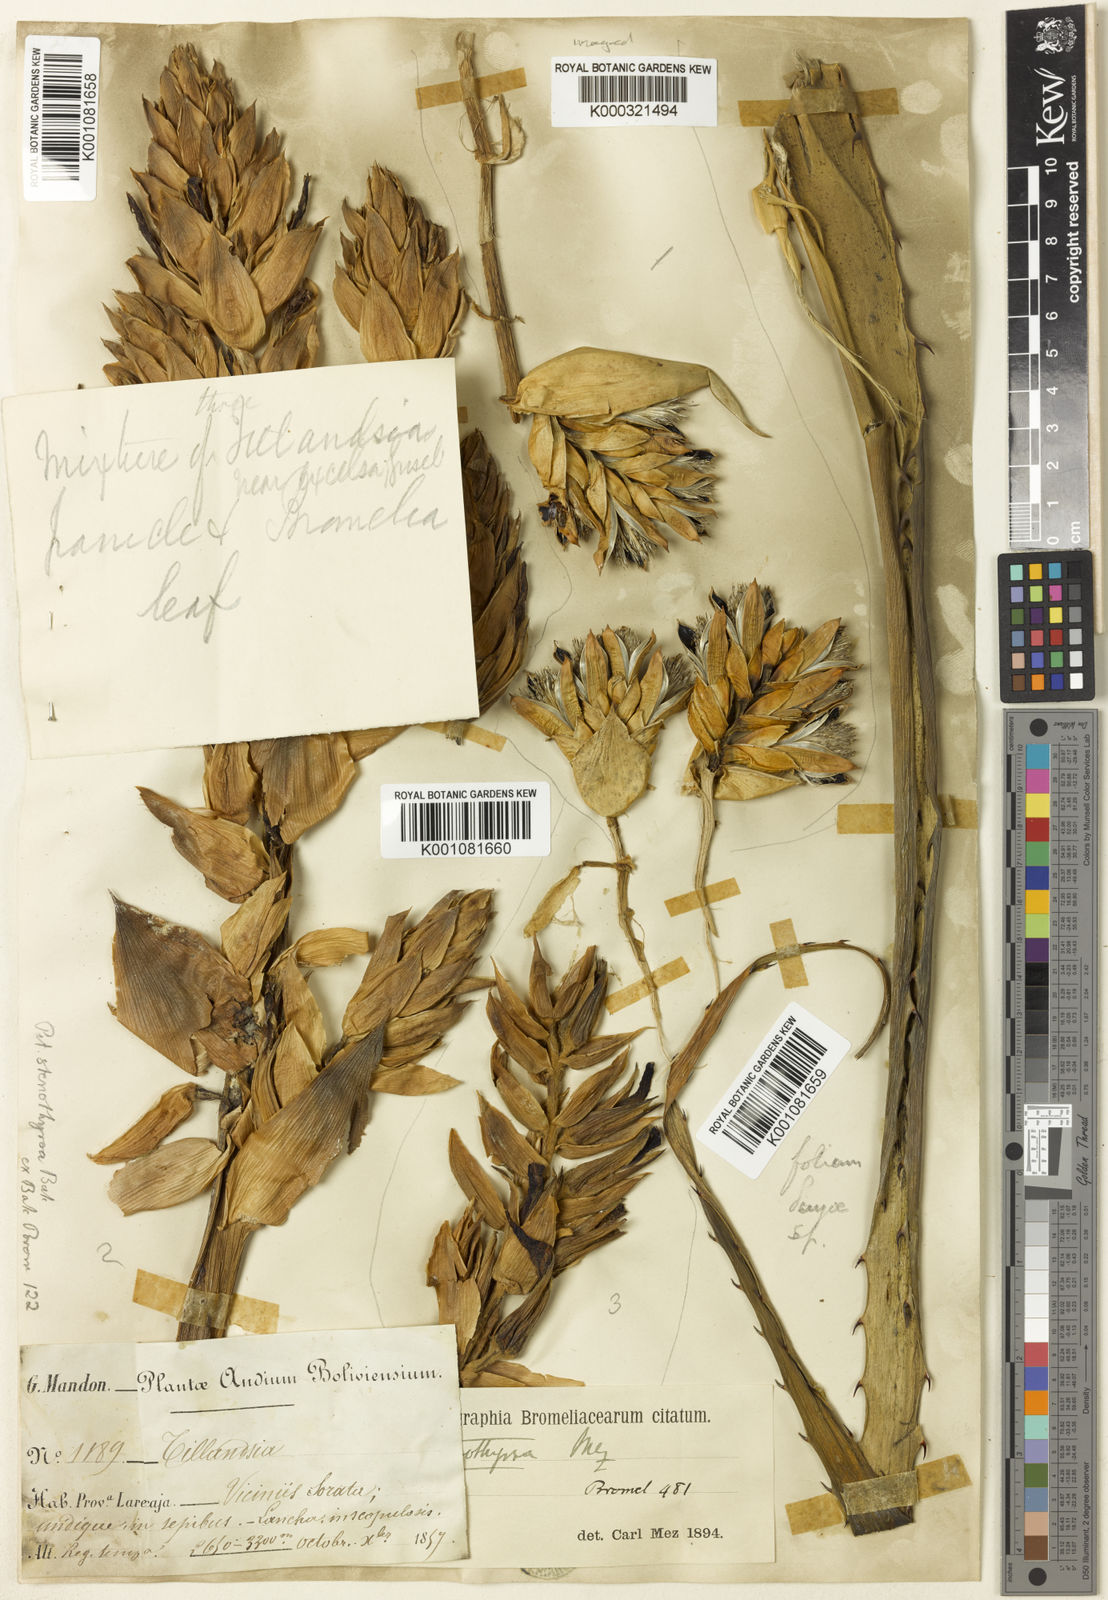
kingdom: Plantae
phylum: Tracheophyta
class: Liliopsida
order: Poales
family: Bromeliaceae
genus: Puya
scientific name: Puya stenothyrsa
